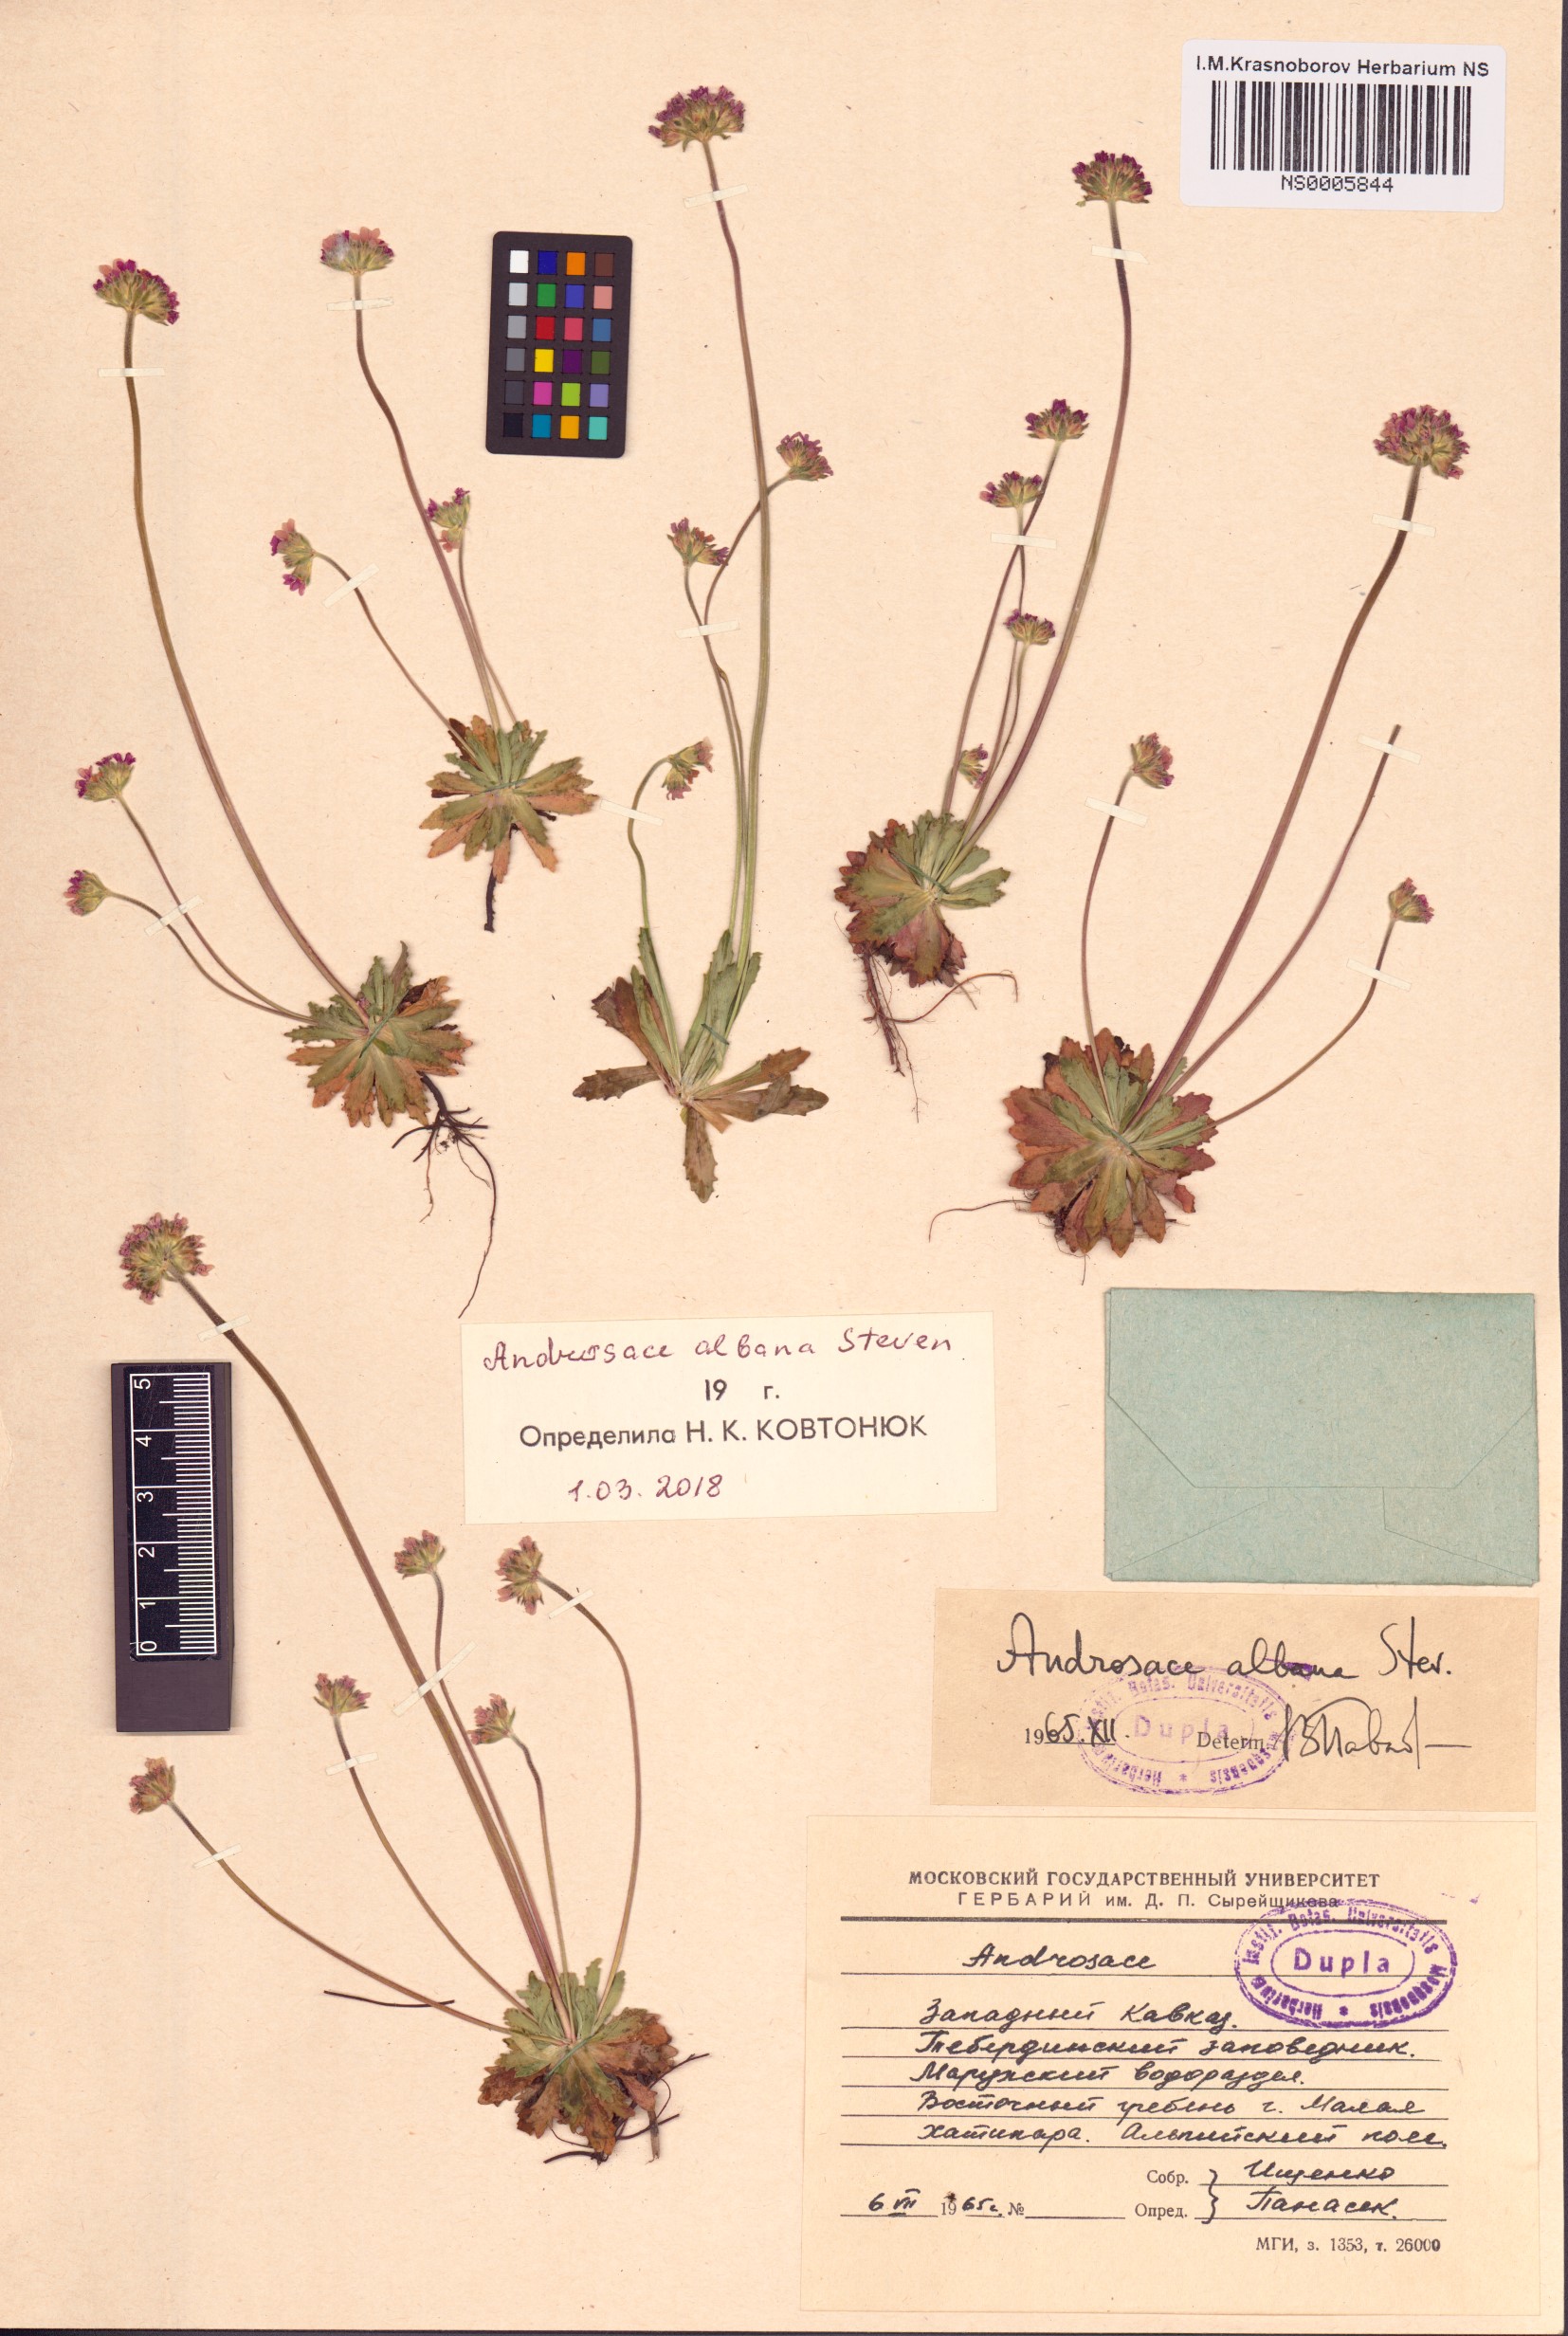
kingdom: Plantae
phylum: Tracheophyta
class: Magnoliopsida
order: Ericales
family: Primulaceae
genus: Androsace
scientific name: Androsace albana
